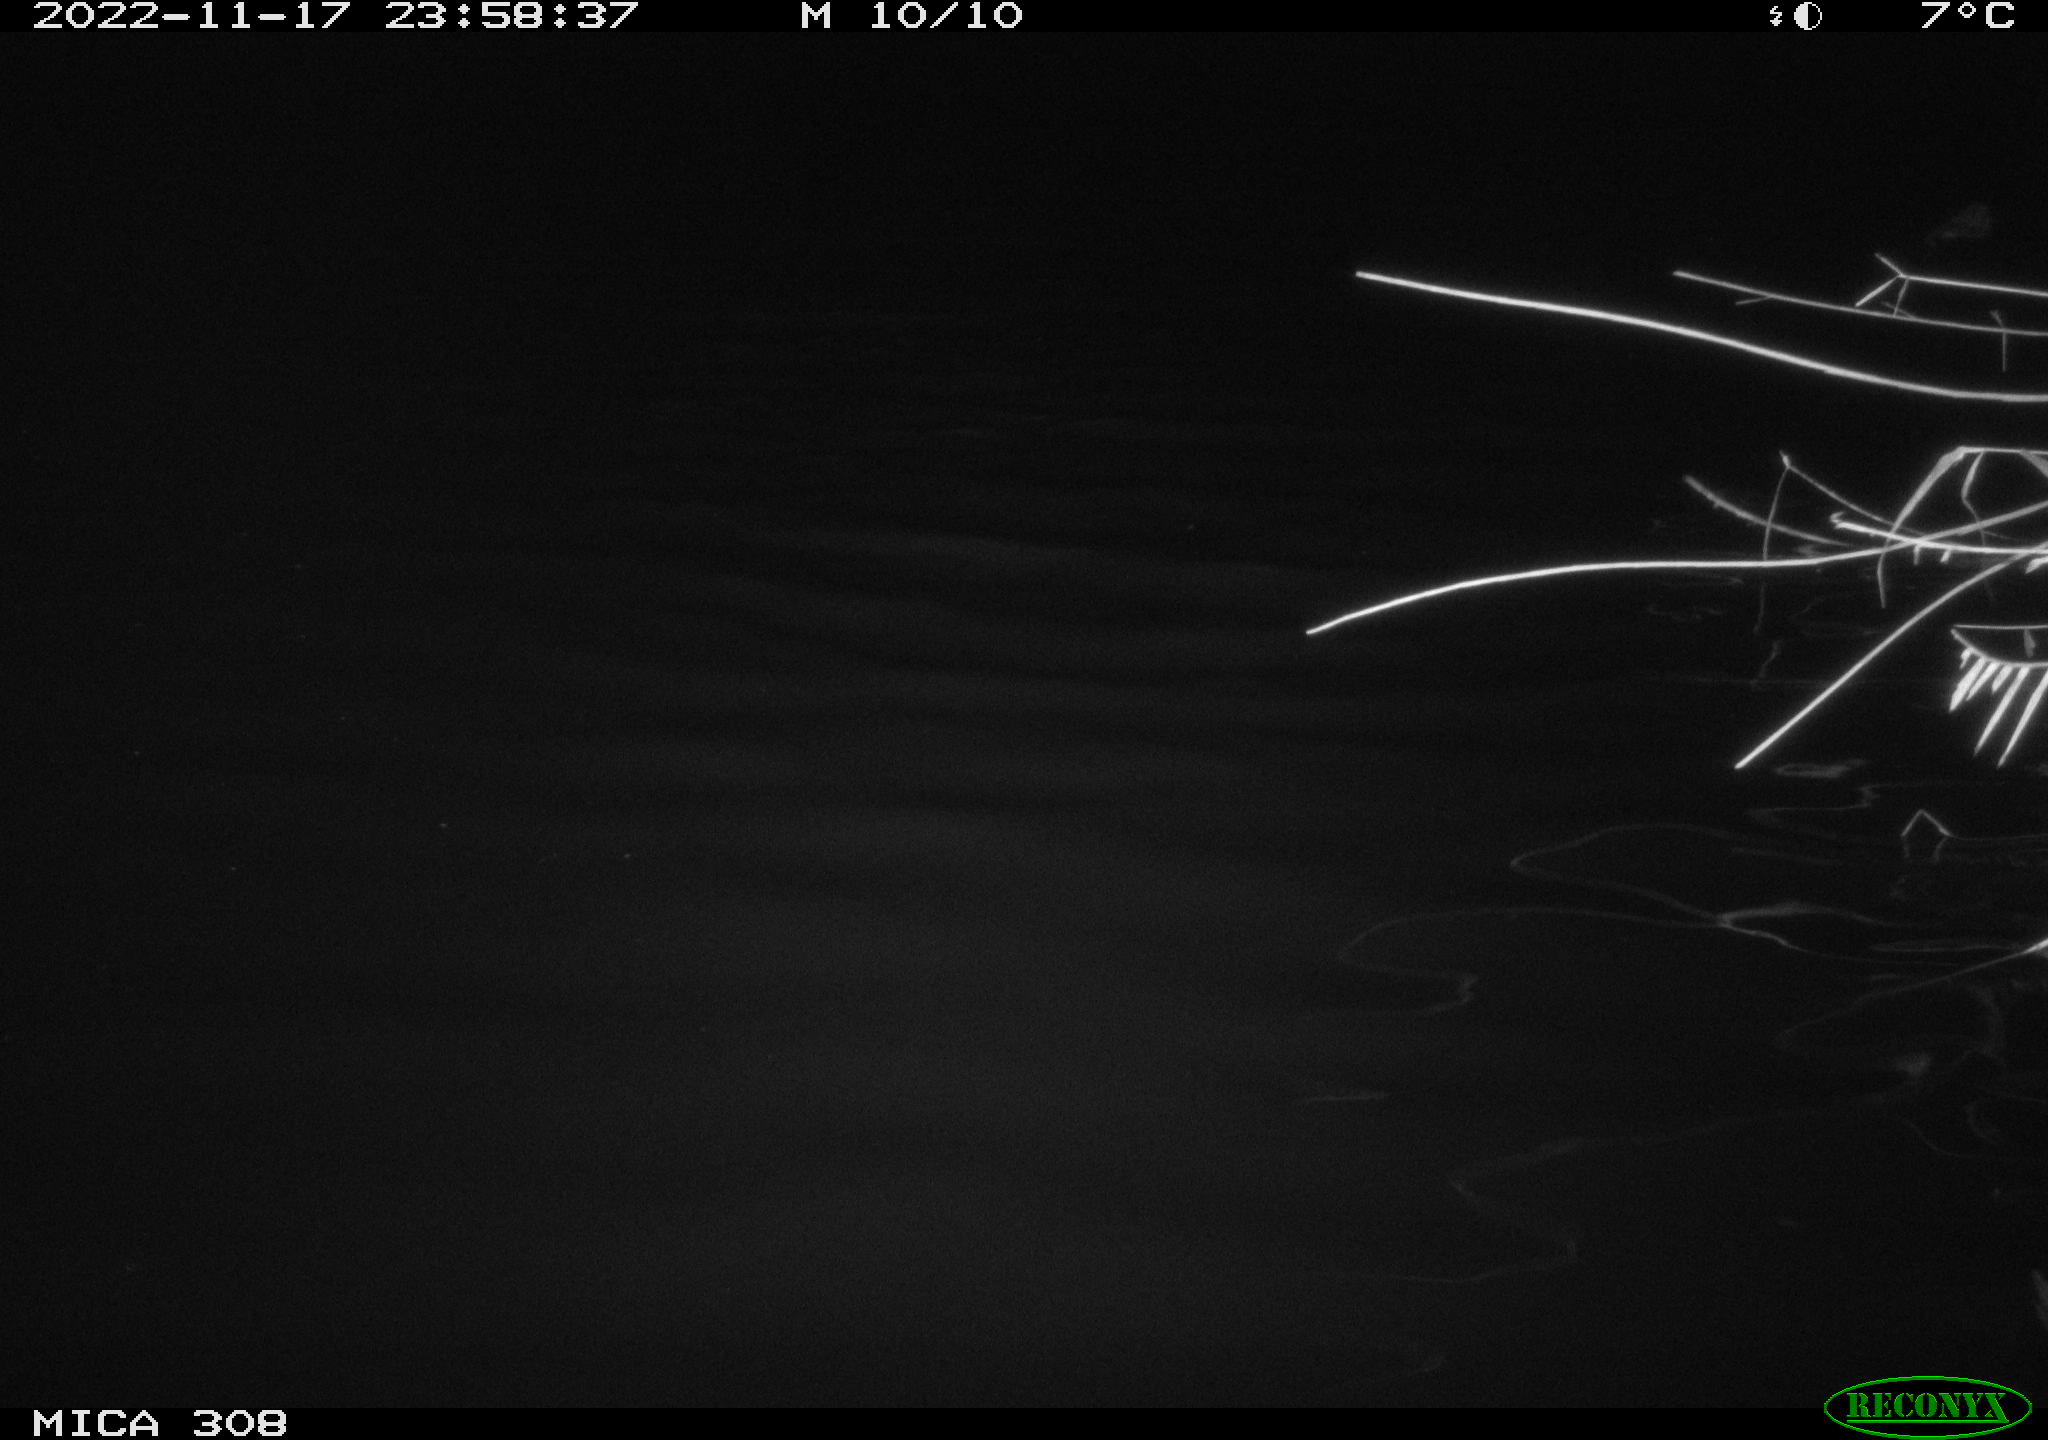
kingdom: Animalia
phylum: Chordata
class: Mammalia
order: Rodentia
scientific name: Rodentia
